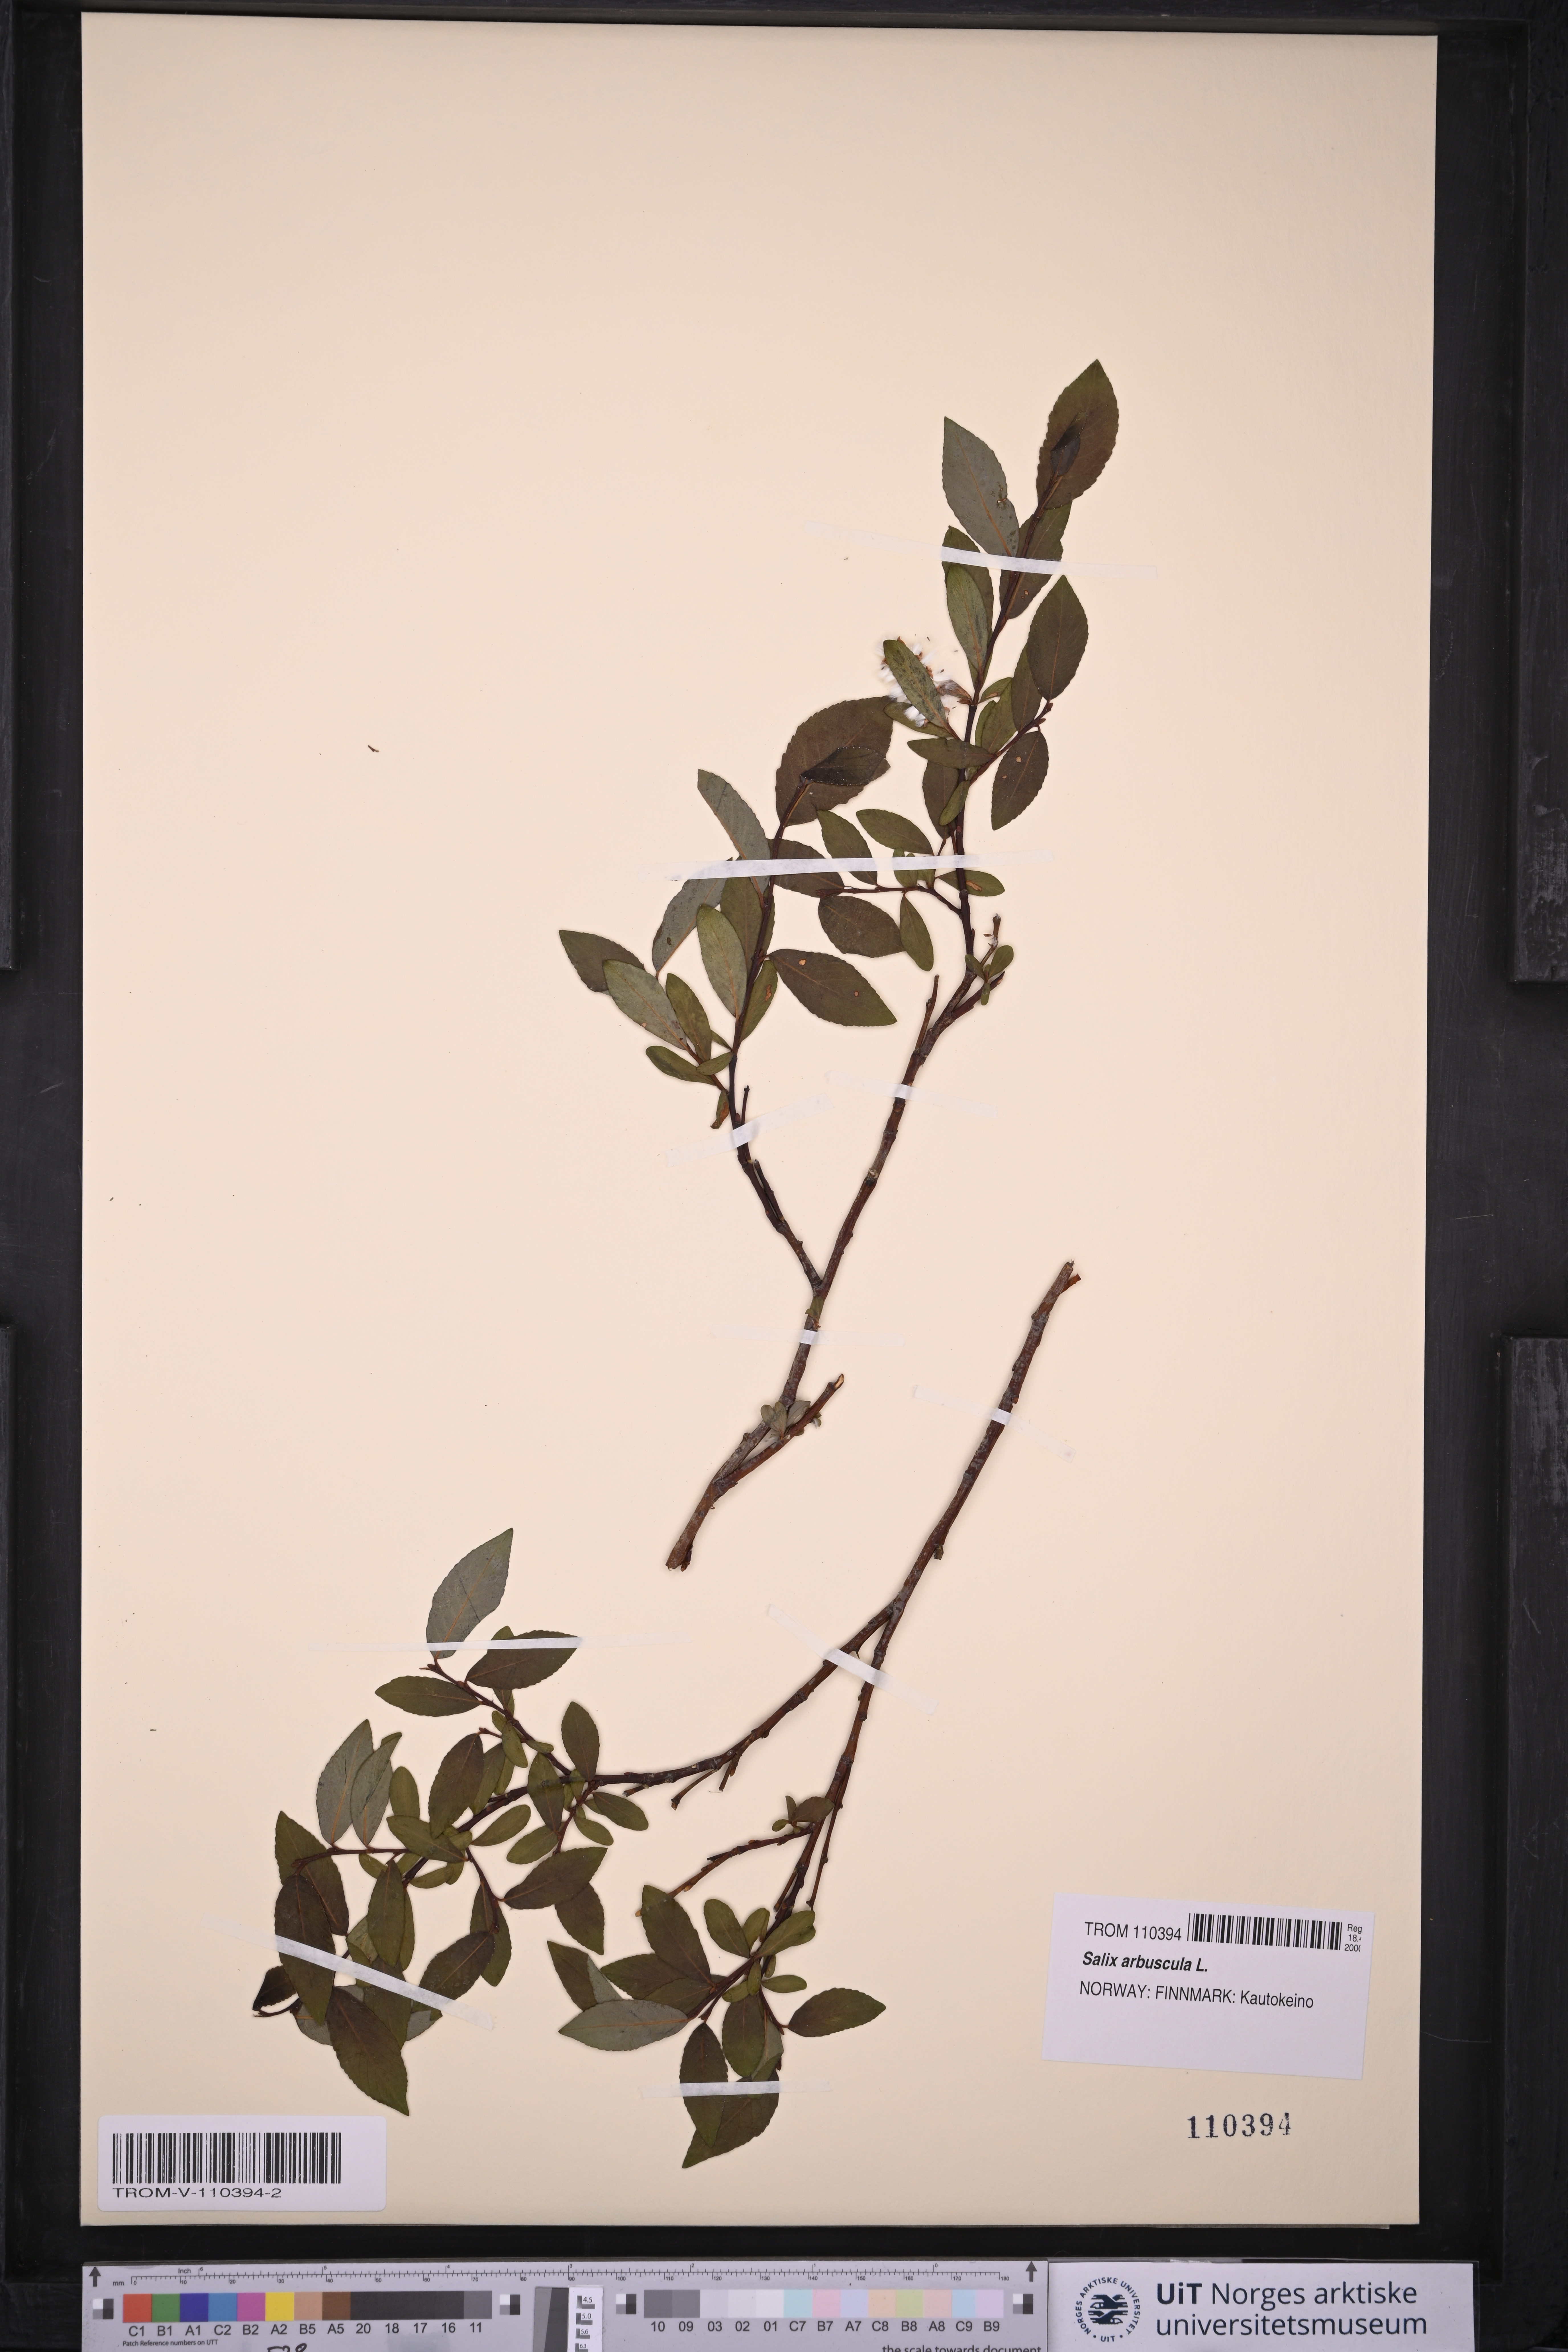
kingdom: Plantae
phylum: Tracheophyta
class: Magnoliopsida
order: Malpighiales
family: Salicaceae
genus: Salix
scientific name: Salix arbuscula
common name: Mountain willow
